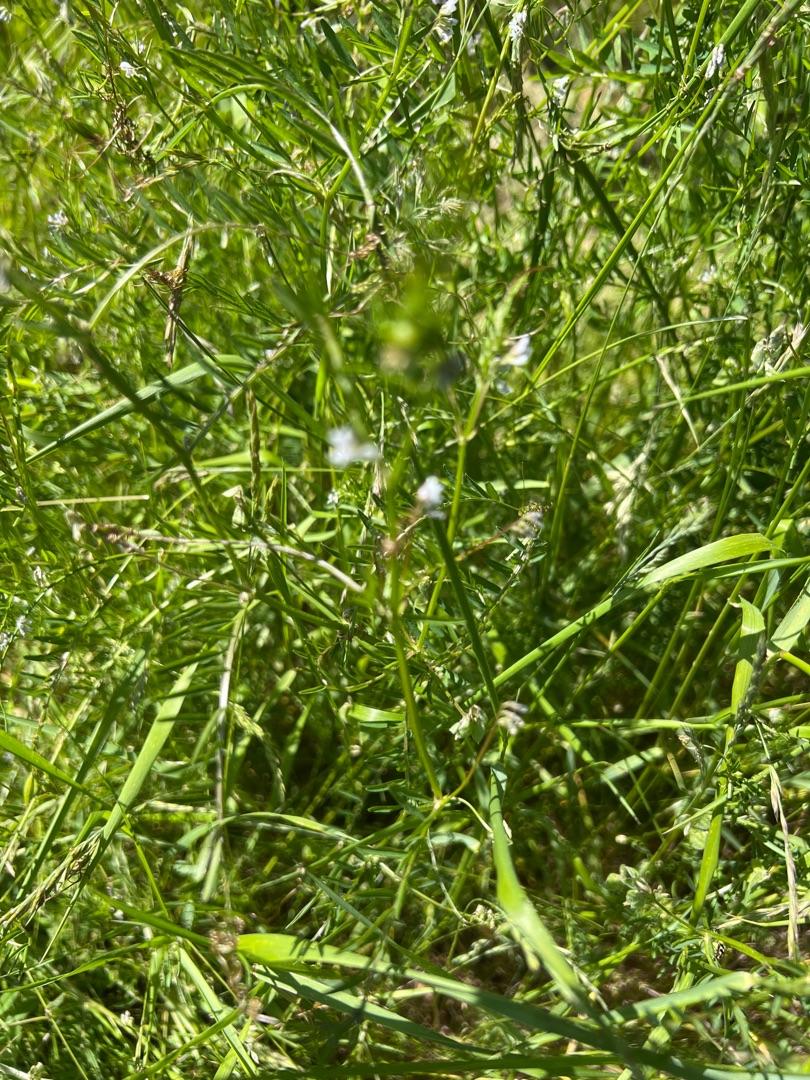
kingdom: Plantae
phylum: Tracheophyta
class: Magnoliopsida
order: Fabales
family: Fabaceae
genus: Vicia
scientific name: Vicia hirsuta
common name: Tofrøet vikke
